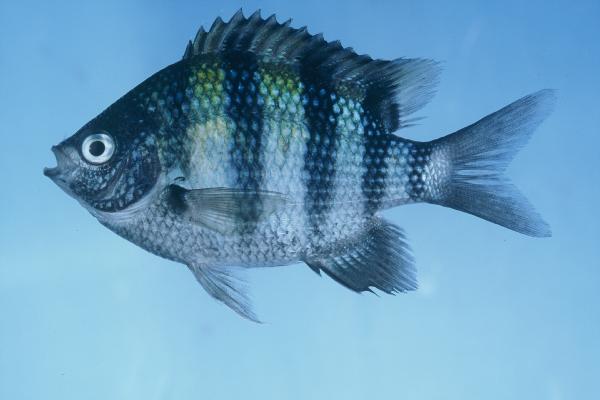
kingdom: Animalia
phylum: Chordata
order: Perciformes
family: Pomacentridae
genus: Abudefduf
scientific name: Abudefduf vaigiensis
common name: Indo-pacific sergeant
